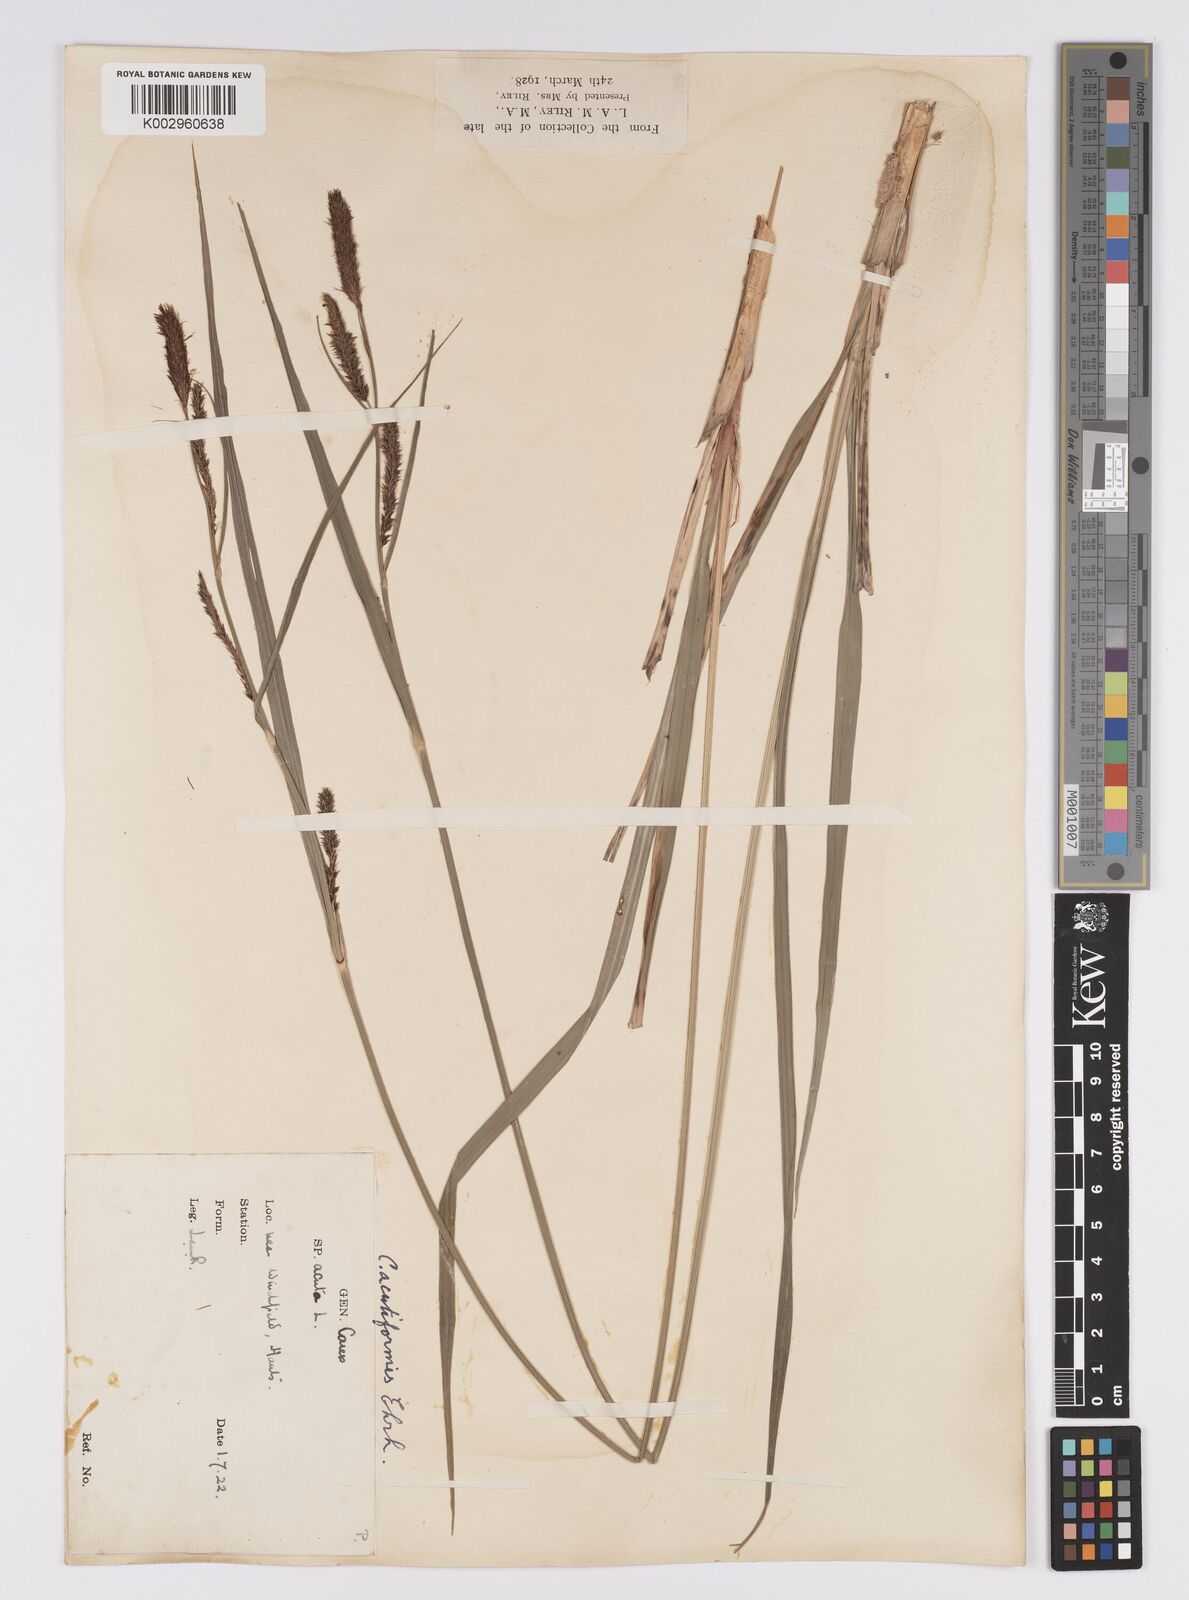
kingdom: Plantae
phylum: Tracheophyta
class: Liliopsida
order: Poales
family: Cyperaceae
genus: Carex
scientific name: Carex acutiformis
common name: Lesser pond-sedge
